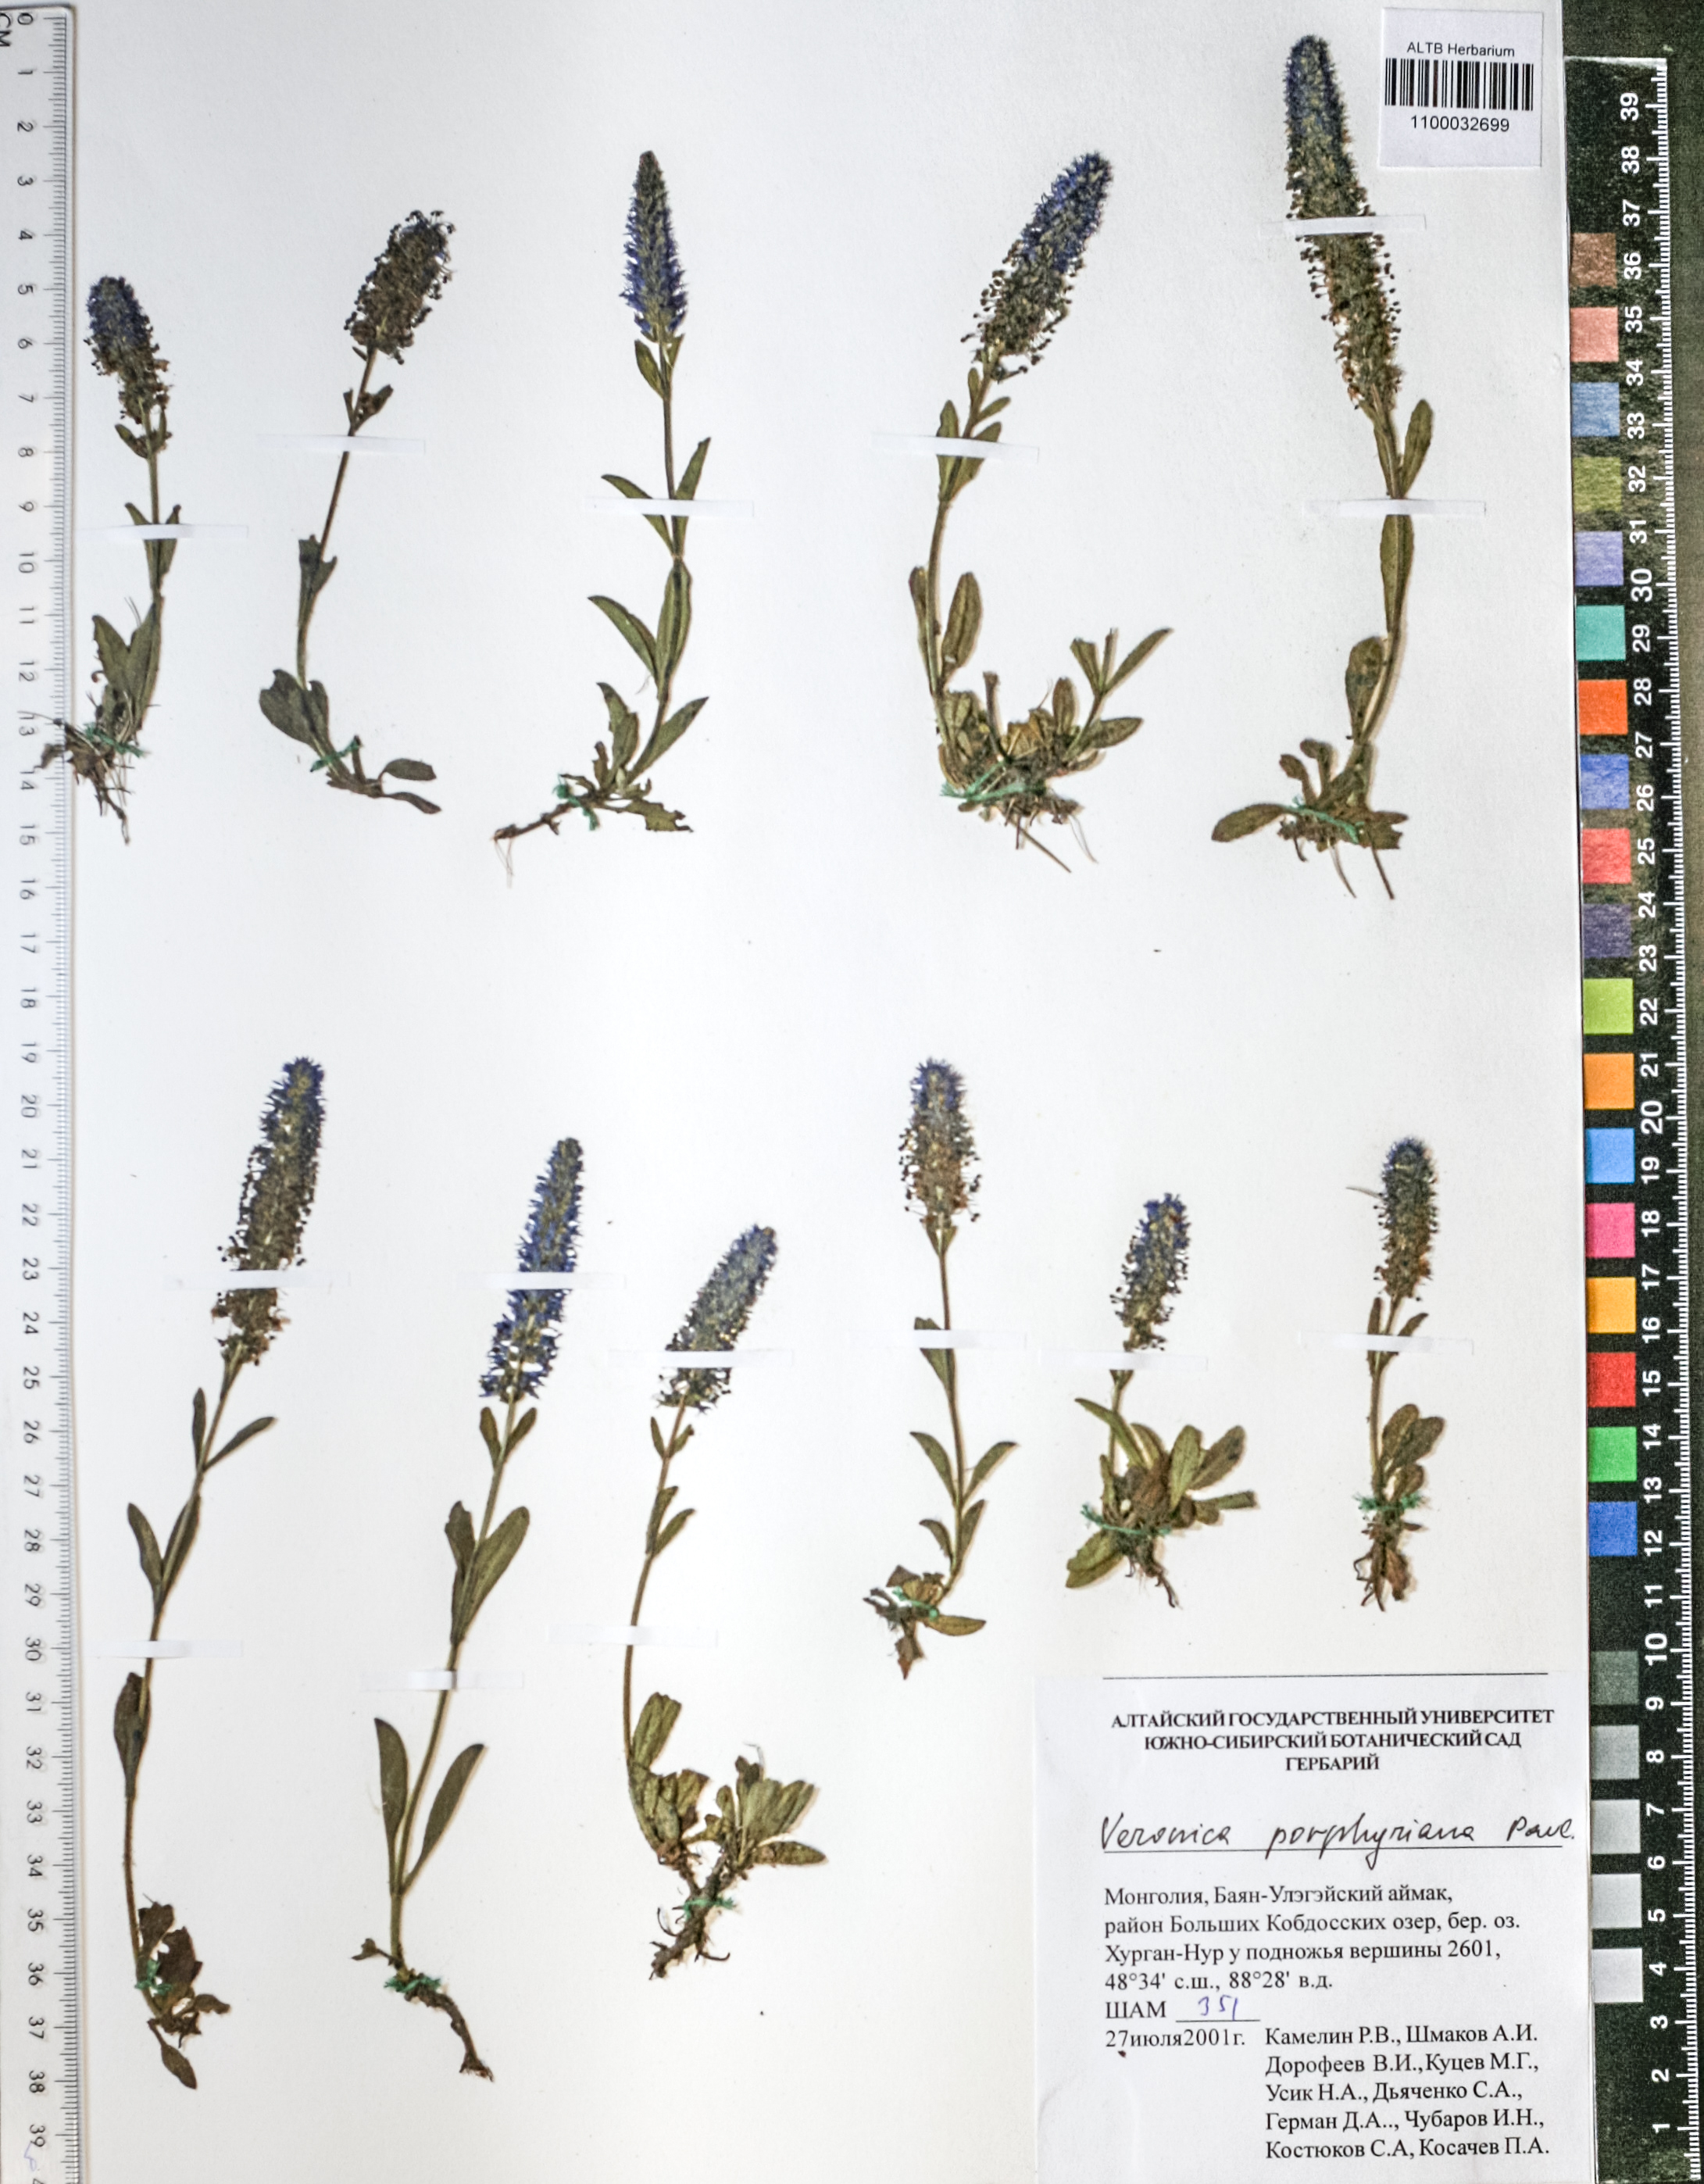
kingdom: Plantae
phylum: Tracheophyta
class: Magnoliopsida
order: Lamiales
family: Plantaginaceae
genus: Veronica
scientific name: Veronica porphyriana
